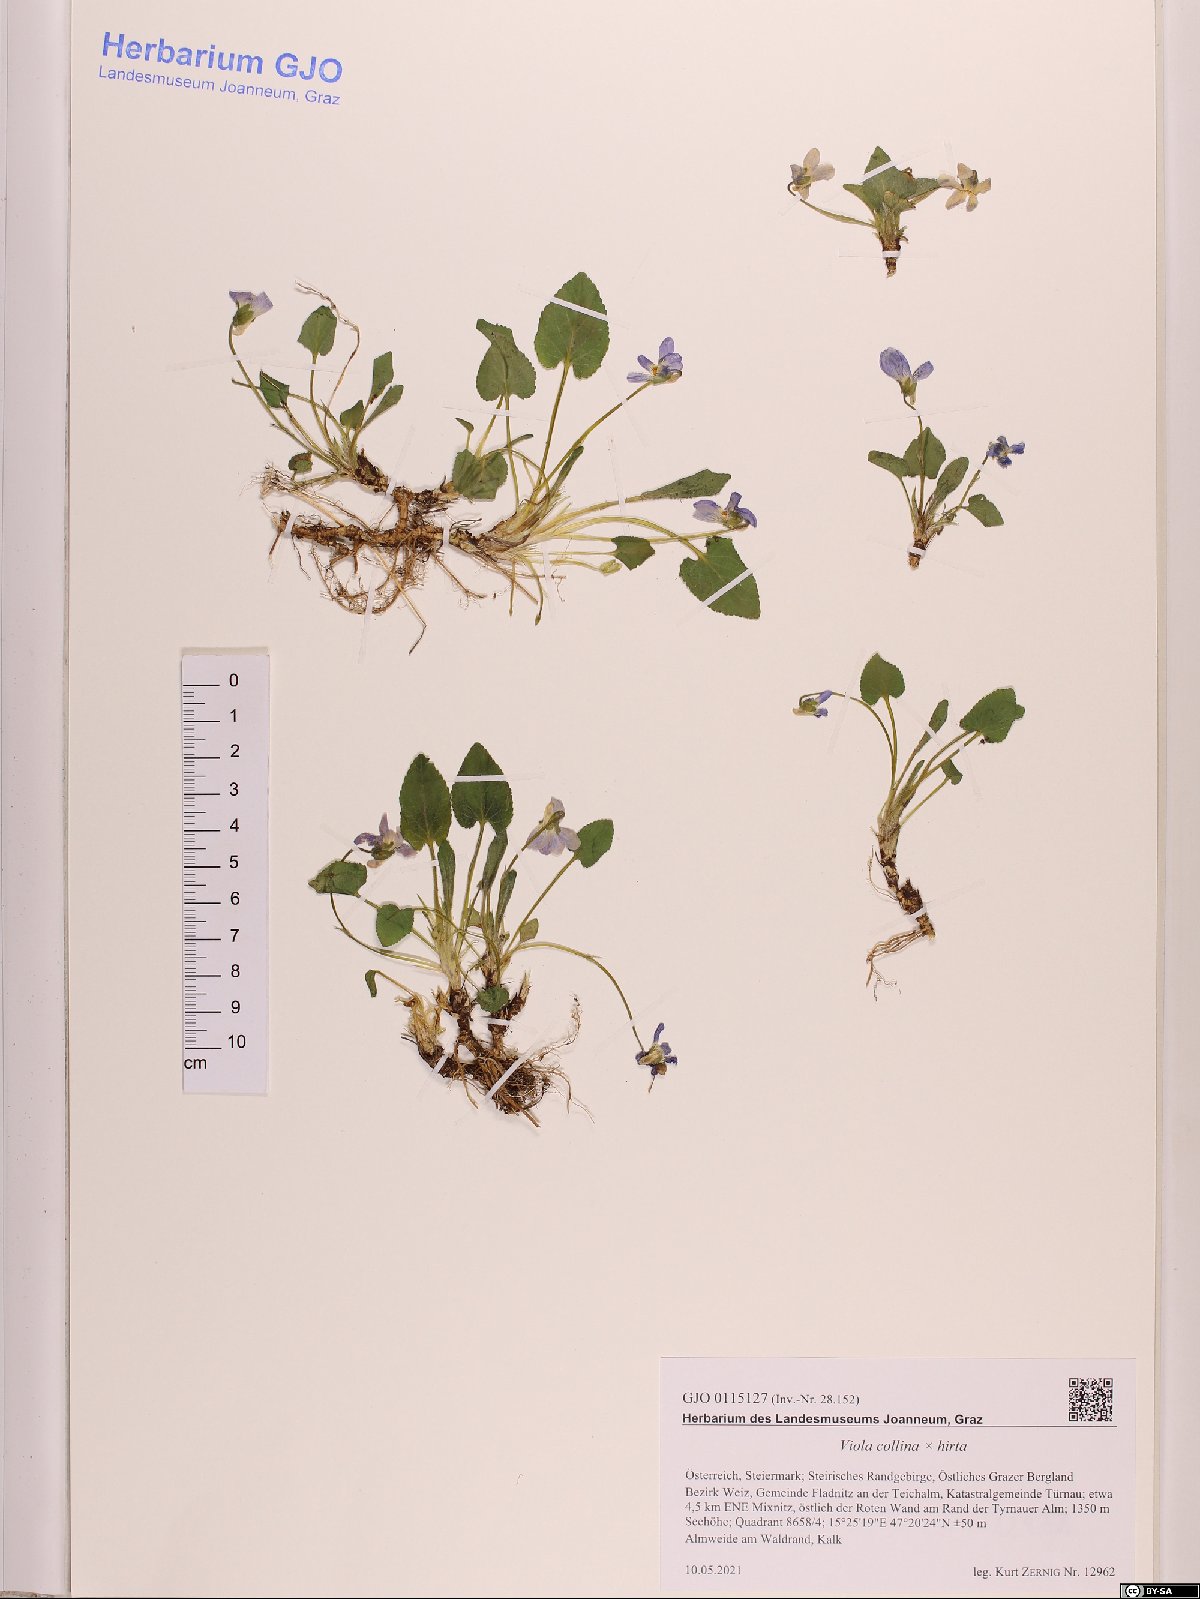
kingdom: Plantae
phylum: Tracheophyta
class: Magnoliopsida
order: Malpighiales
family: Violaceae
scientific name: Violaceae
